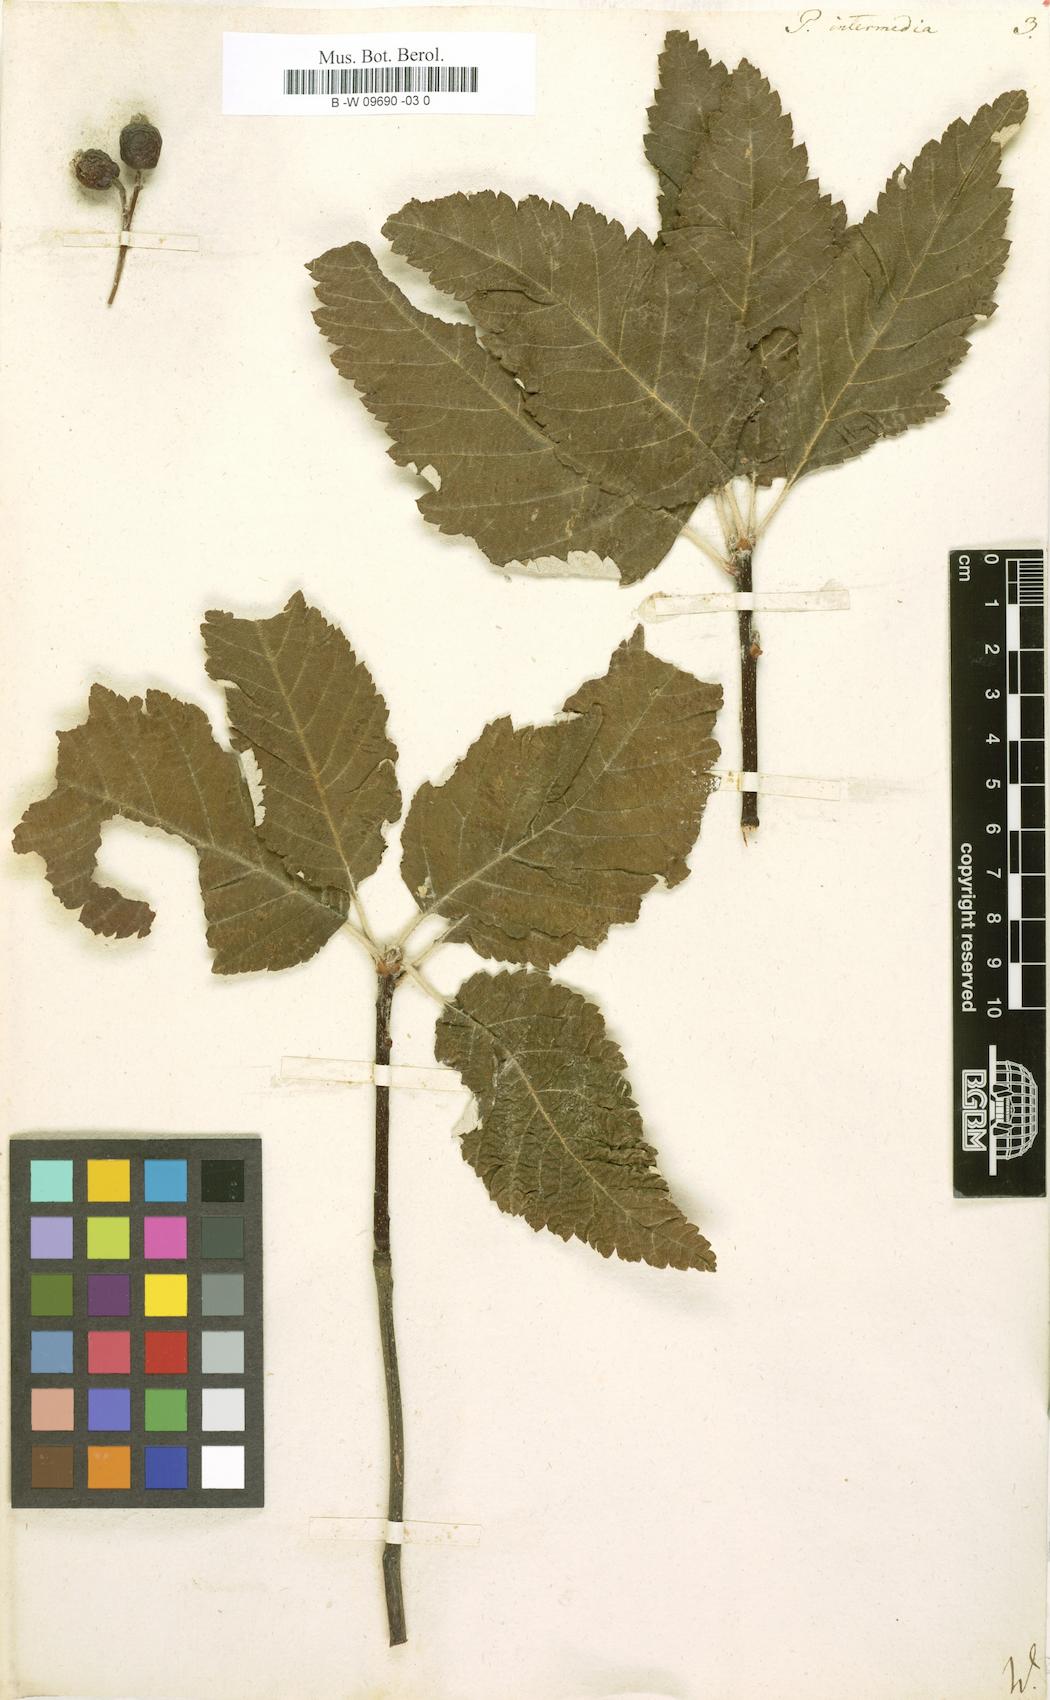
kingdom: Plantae
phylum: Tracheophyta
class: Magnoliopsida
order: Rosales
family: Rosaceae
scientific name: Rosaceae
